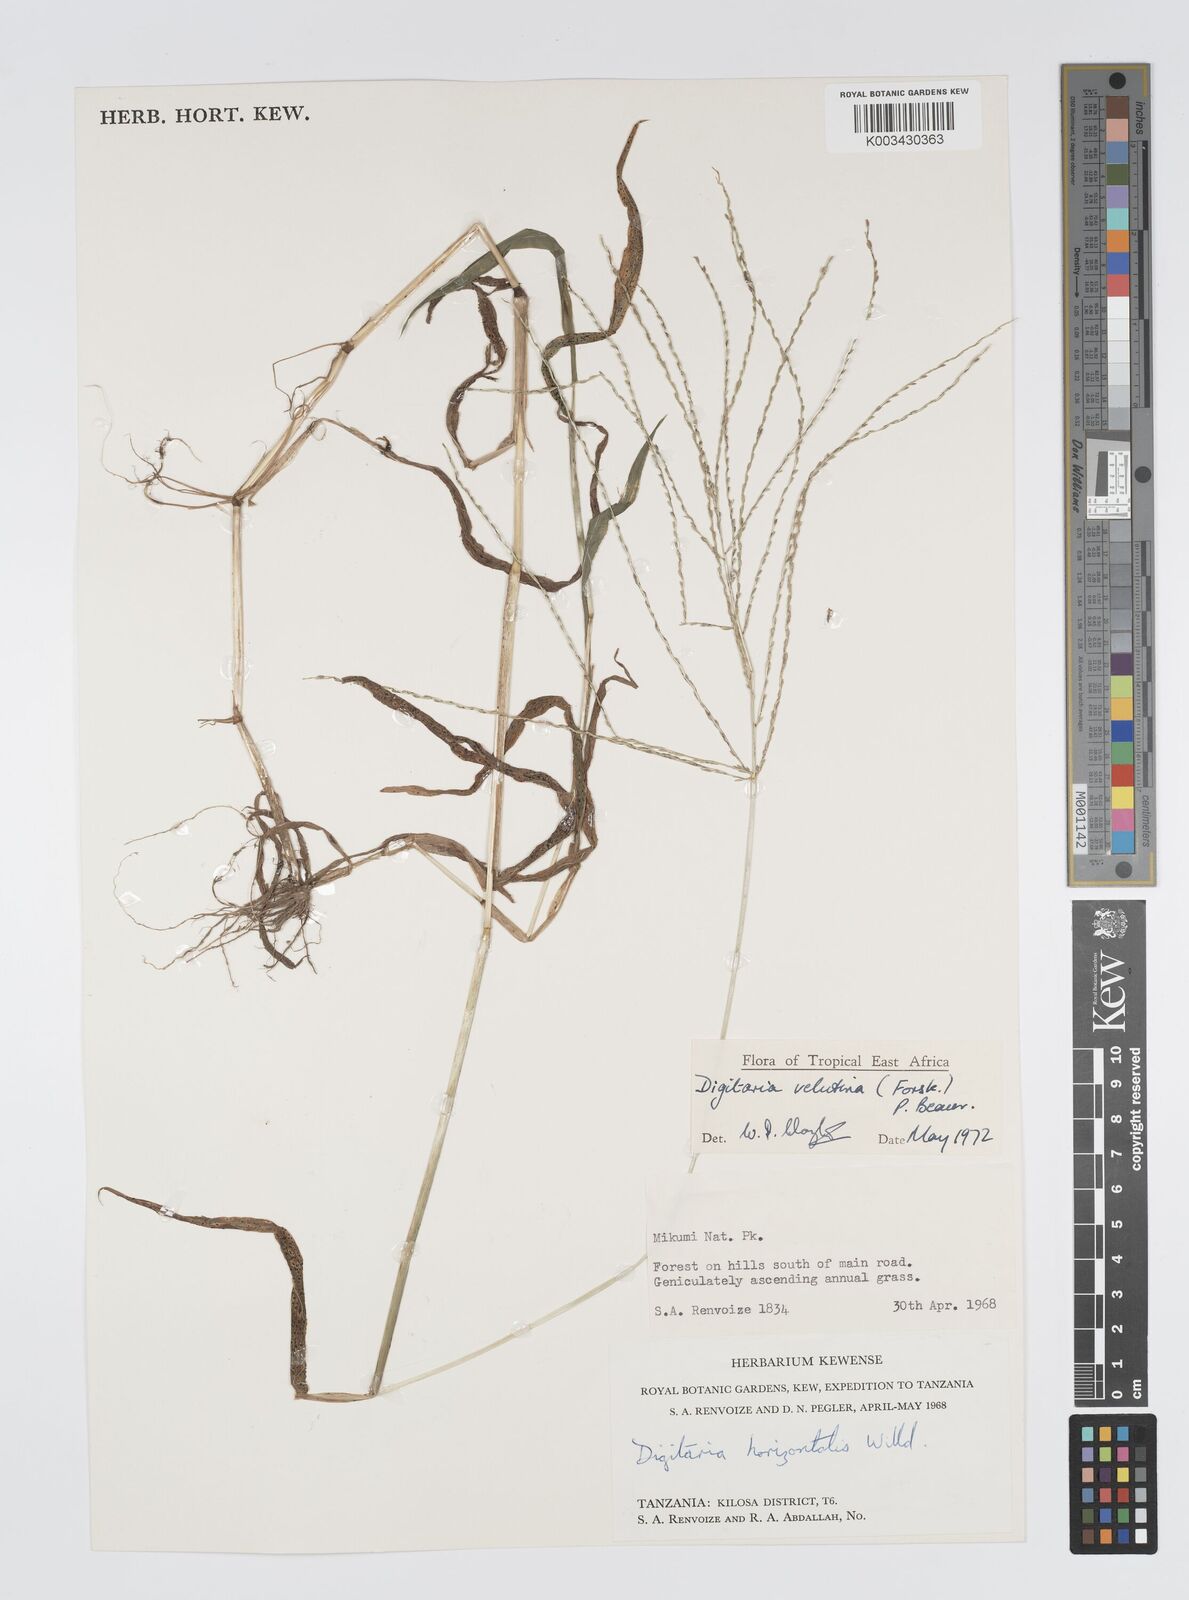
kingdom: Plantae
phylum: Tracheophyta
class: Liliopsida
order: Poales
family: Poaceae
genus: Digitaria
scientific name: Digitaria velutina
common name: Long-plume finger grass
